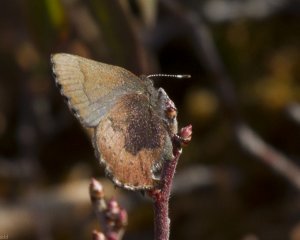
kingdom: Animalia
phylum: Arthropoda
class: Insecta
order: Lepidoptera
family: Lycaenidae
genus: Incisalia
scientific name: Incisalia irioides
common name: Brown Elfin
